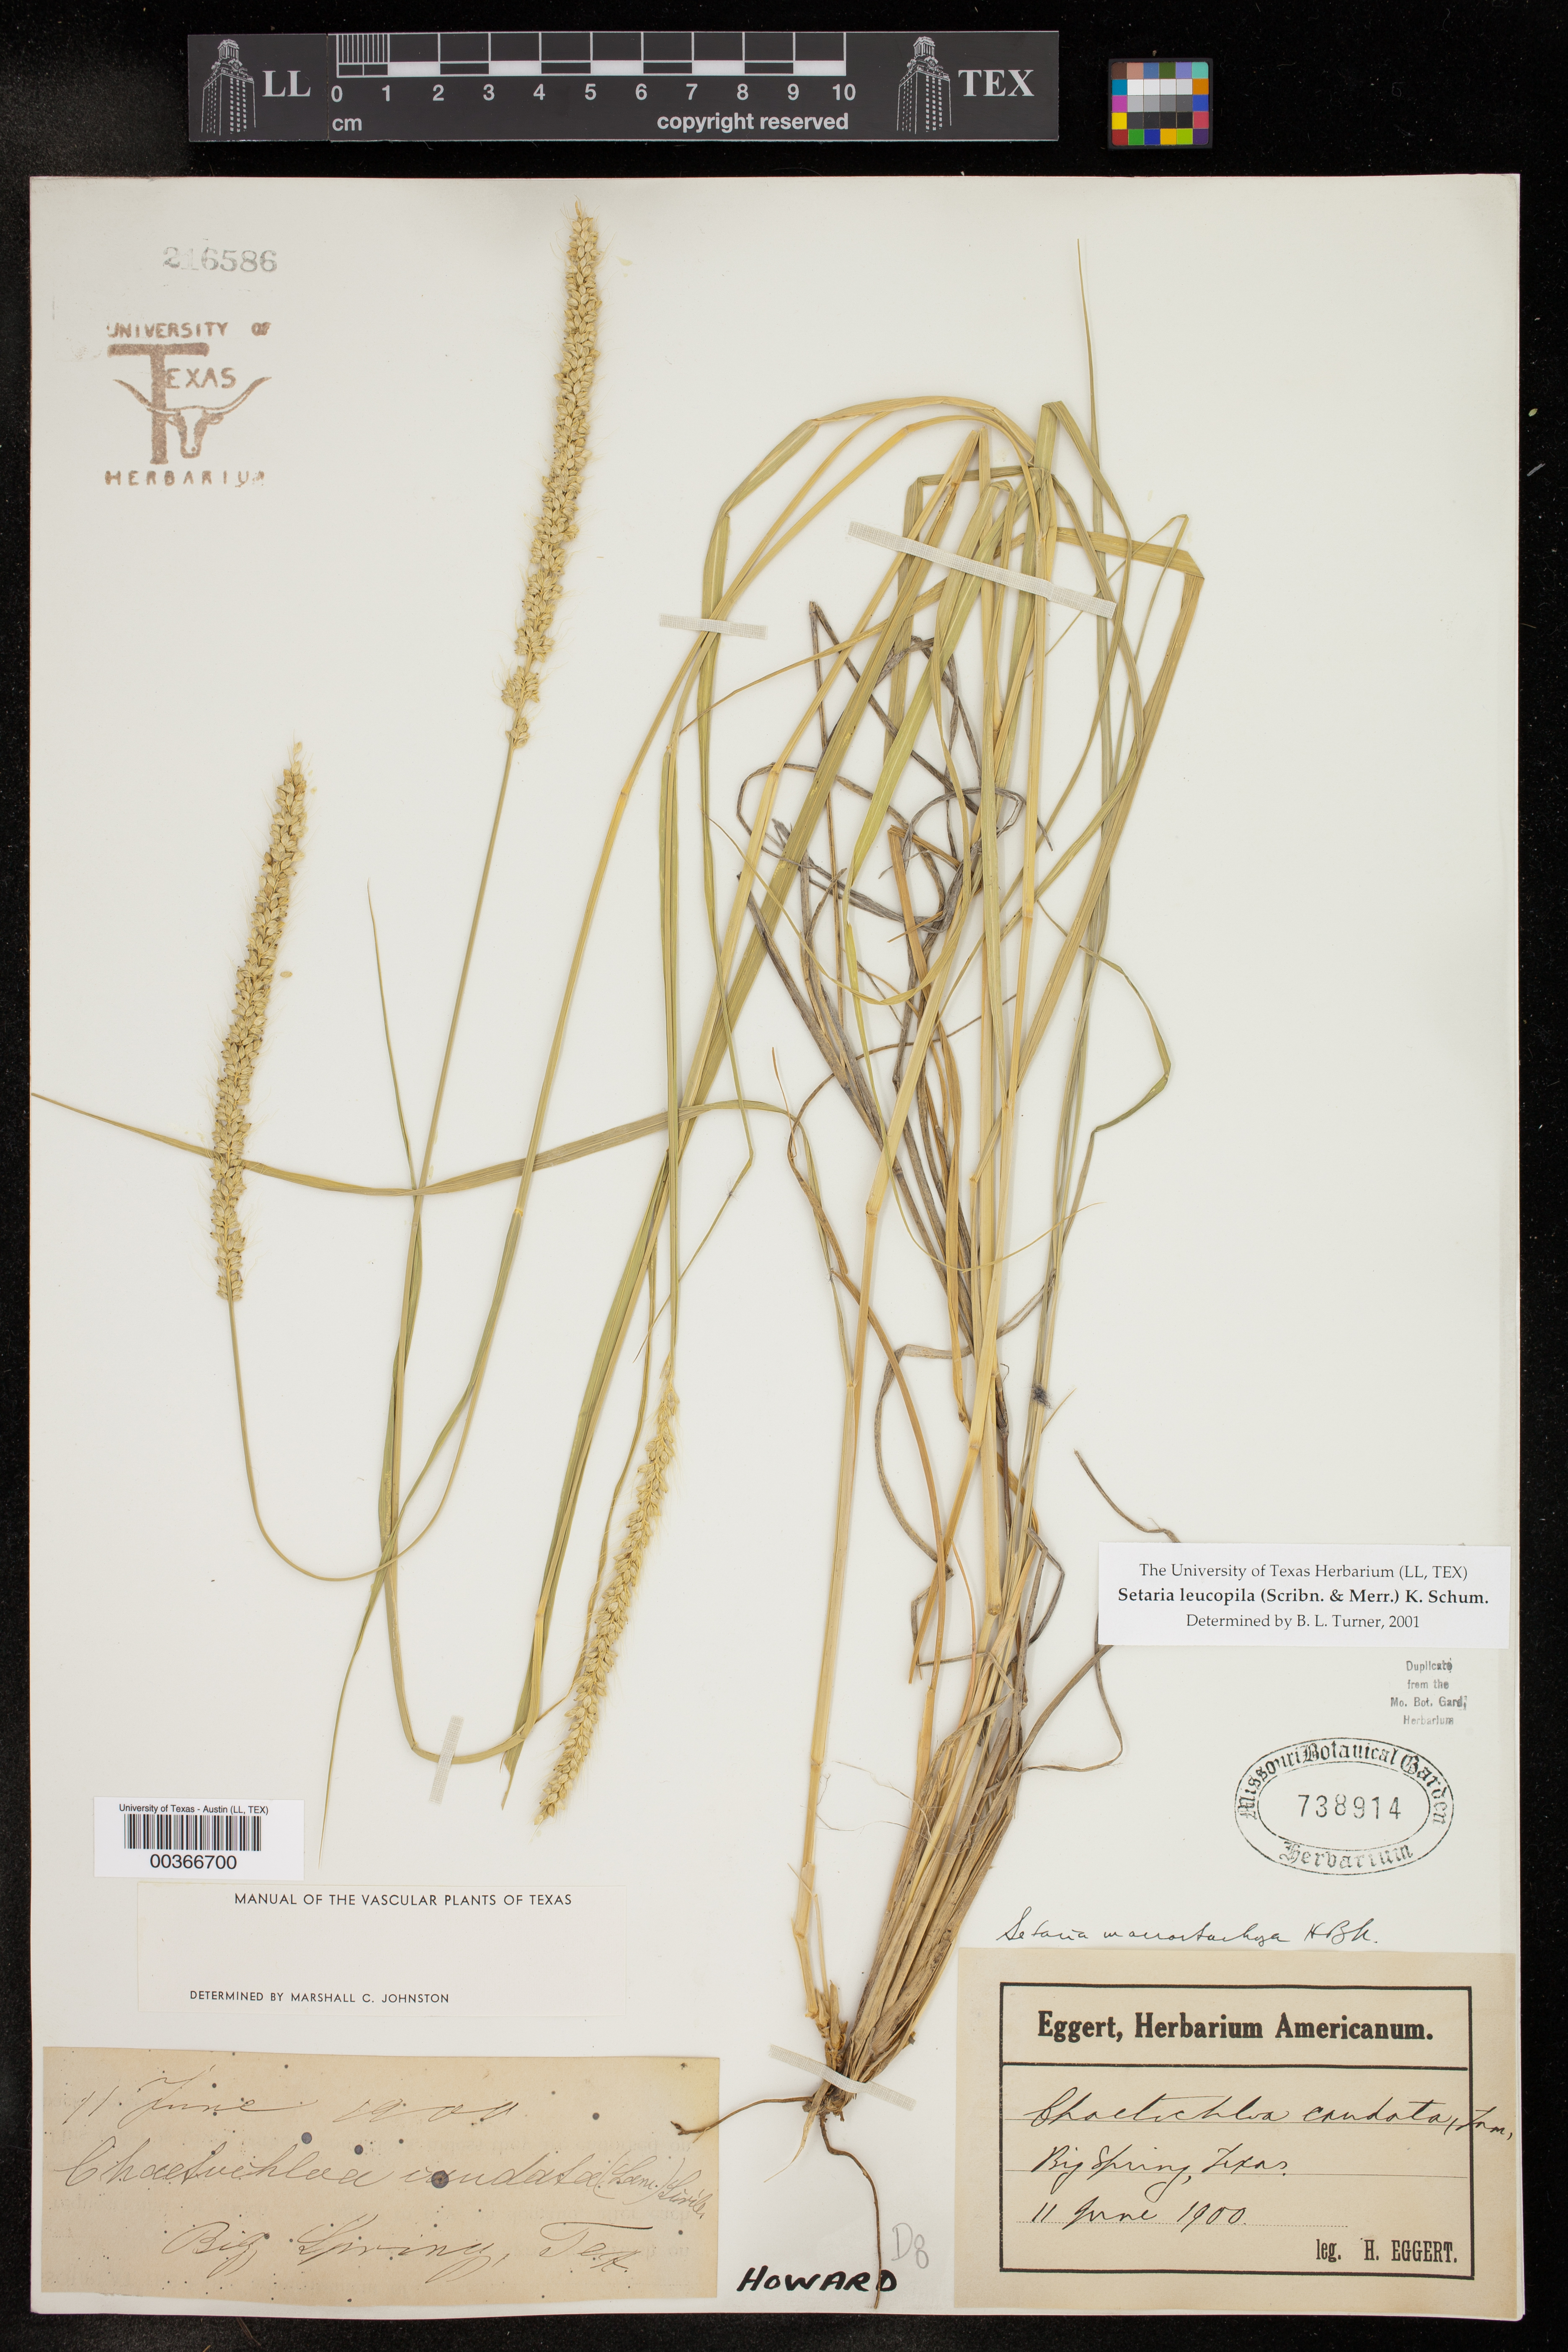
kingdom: Plantae
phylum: Tracheophyta
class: Liliopsida
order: Poales
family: Poaceae
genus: Setaria
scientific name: Setaria leucopila
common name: Plains bristle grass
